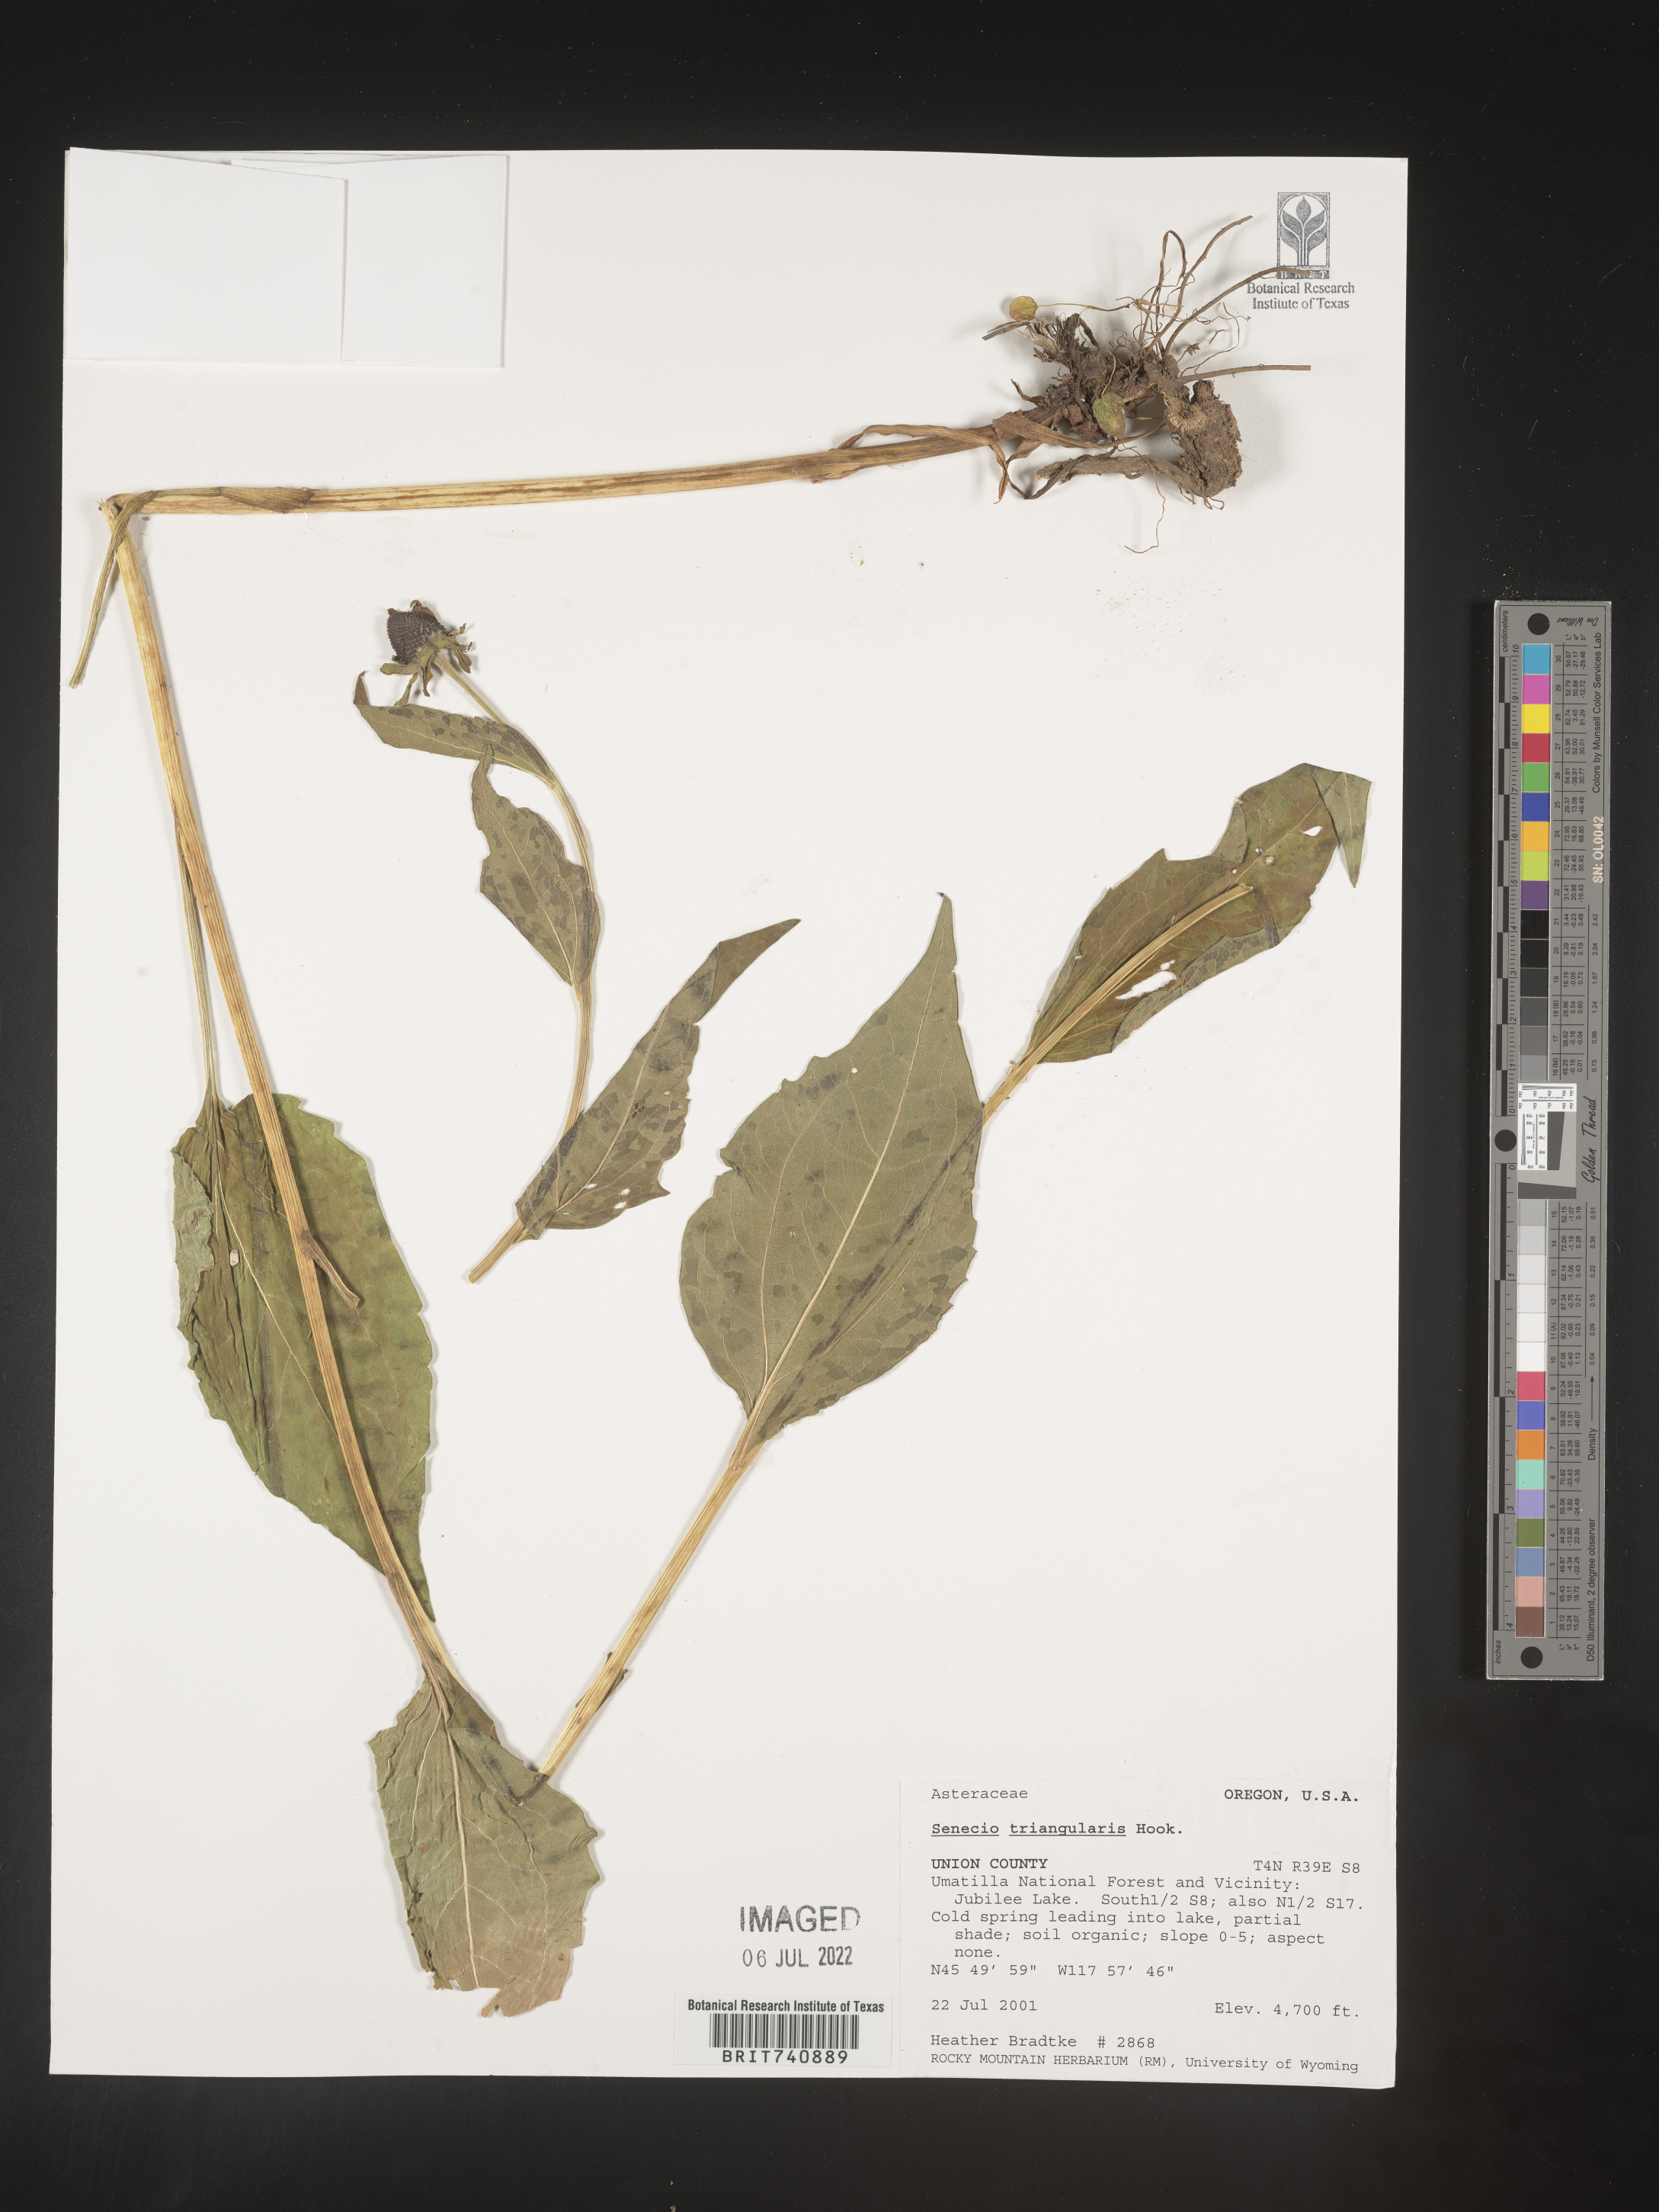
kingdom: Plantae
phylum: Tracheophyta
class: Magnoliopsida
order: Asterales
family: Asteraceae
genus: Senecio
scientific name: Senecio triangularis
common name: Arrowleaf butterweed
